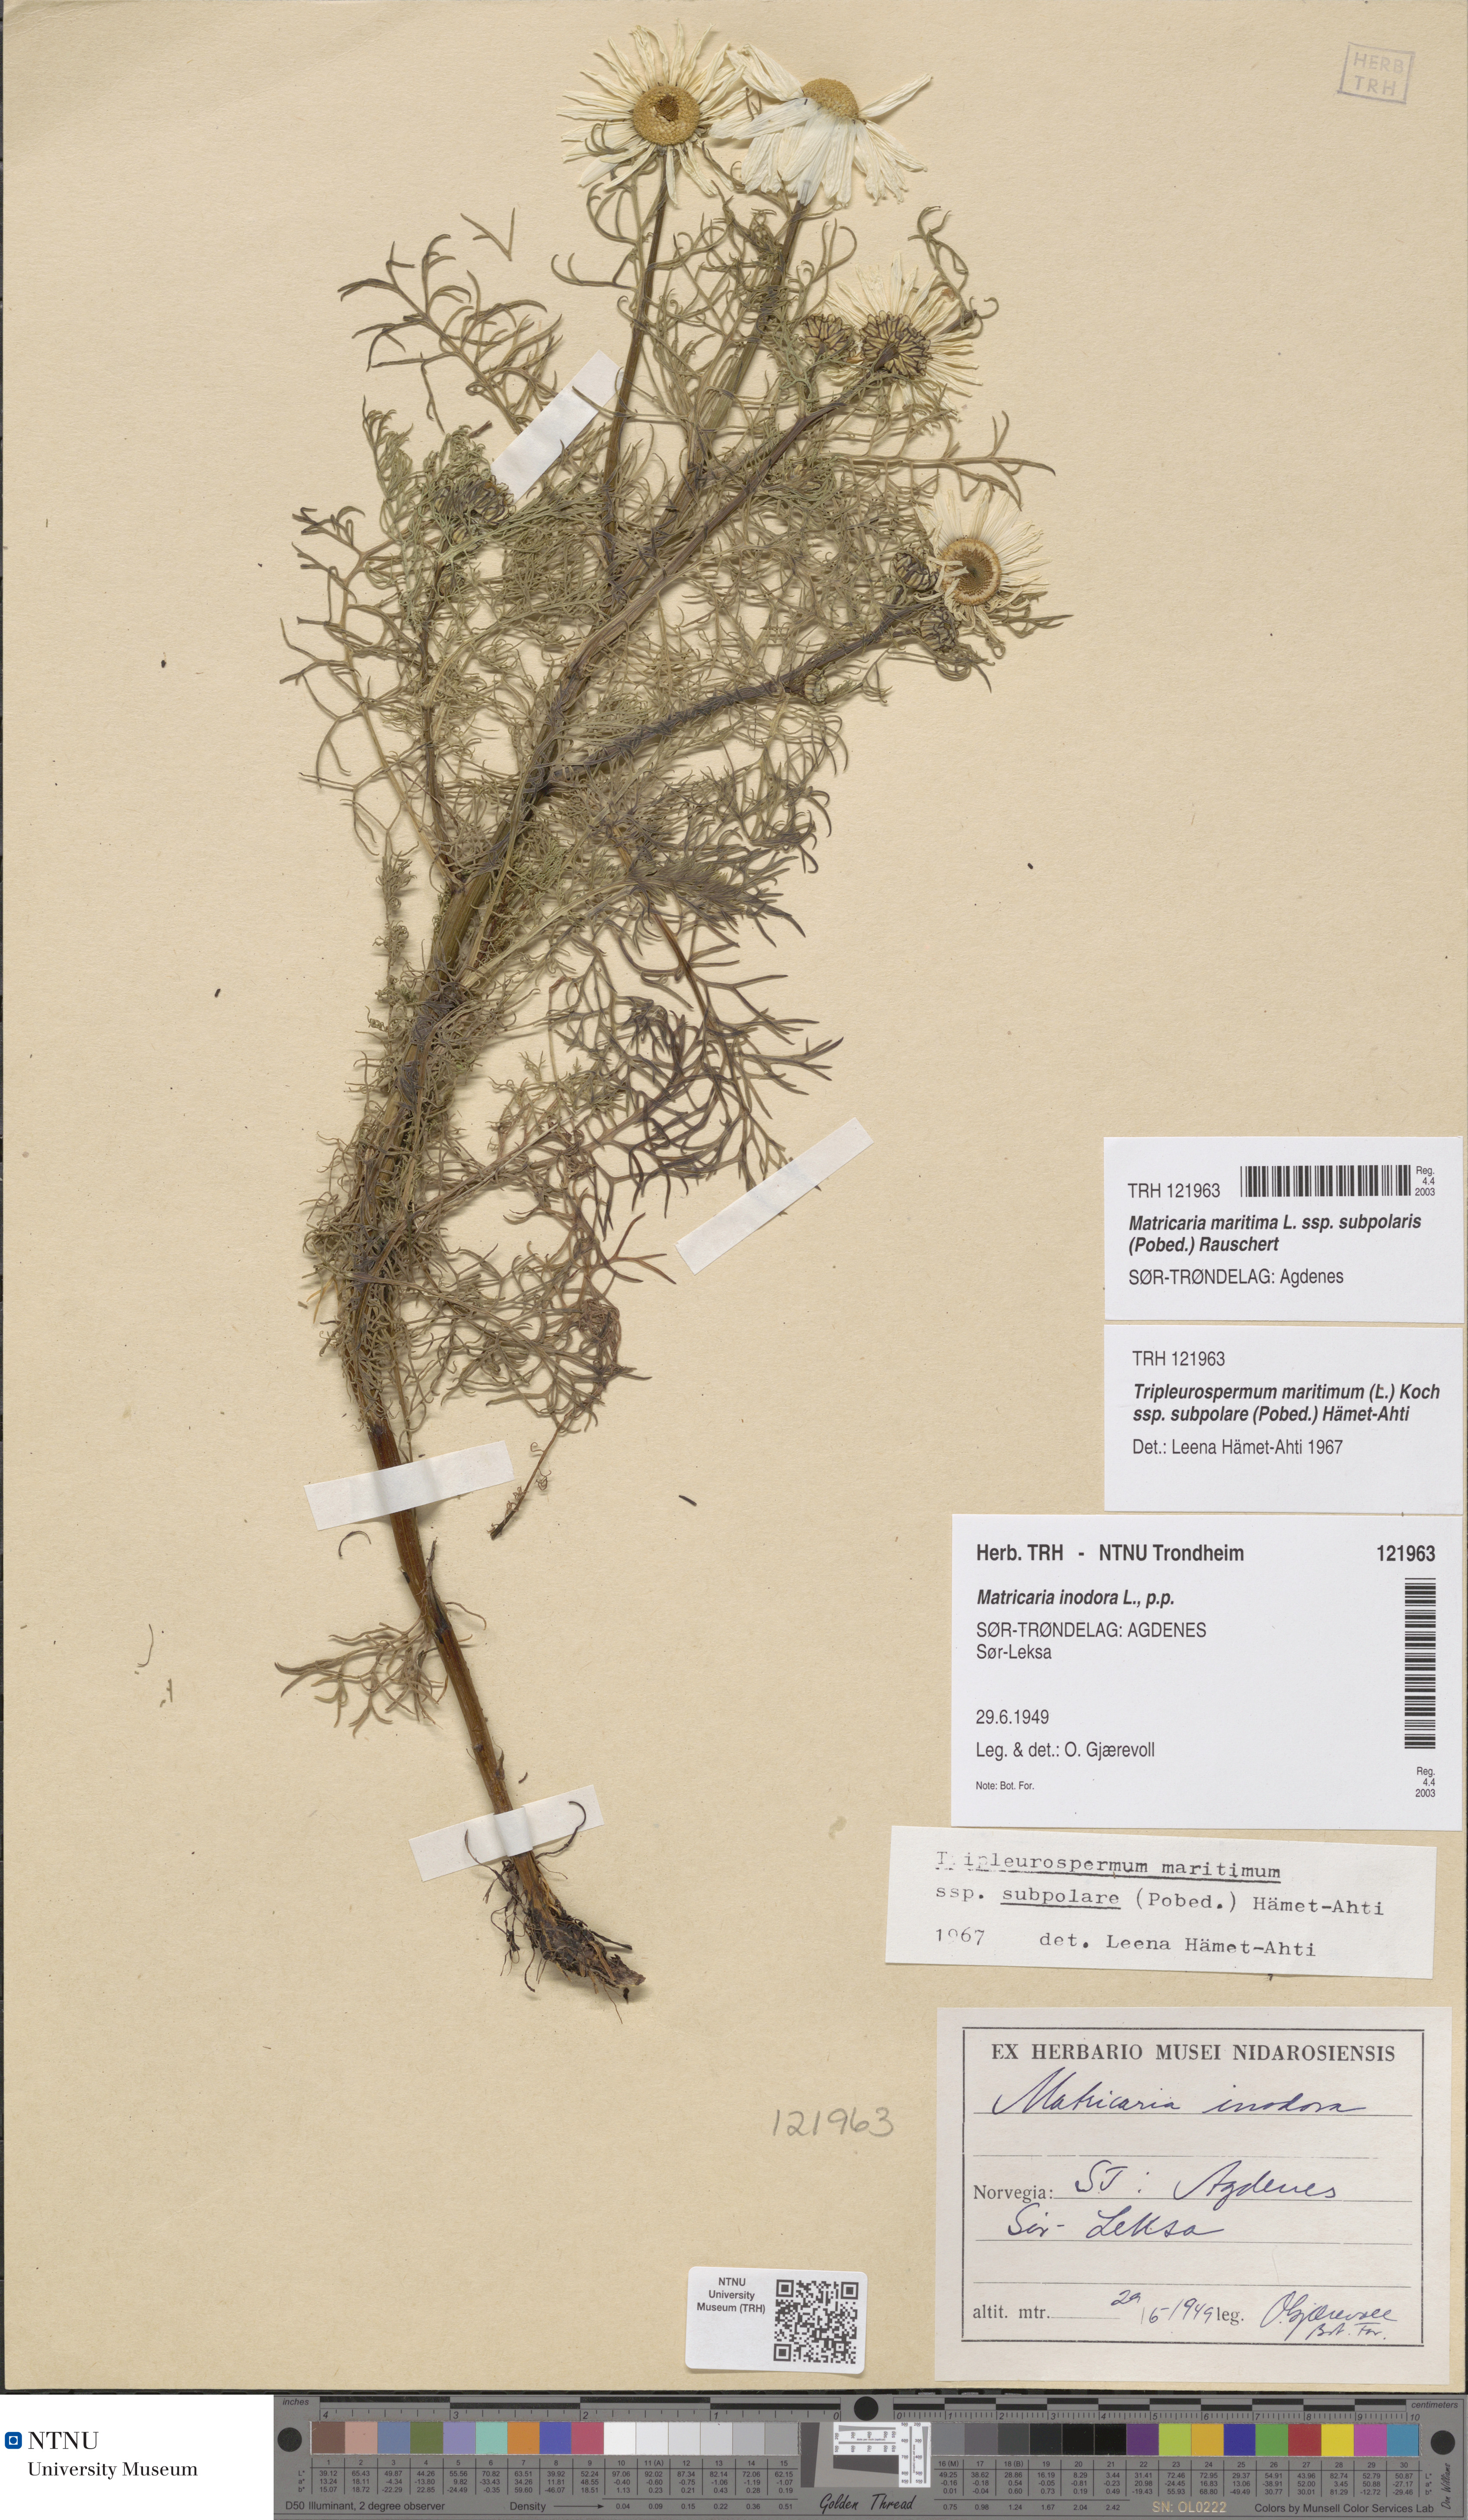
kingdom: Plantae
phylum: Tracheophyta
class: Magnoliopsida
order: Asterales
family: Asteraceae
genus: Tripleurospermum
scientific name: Tripleurospermum subpolare
